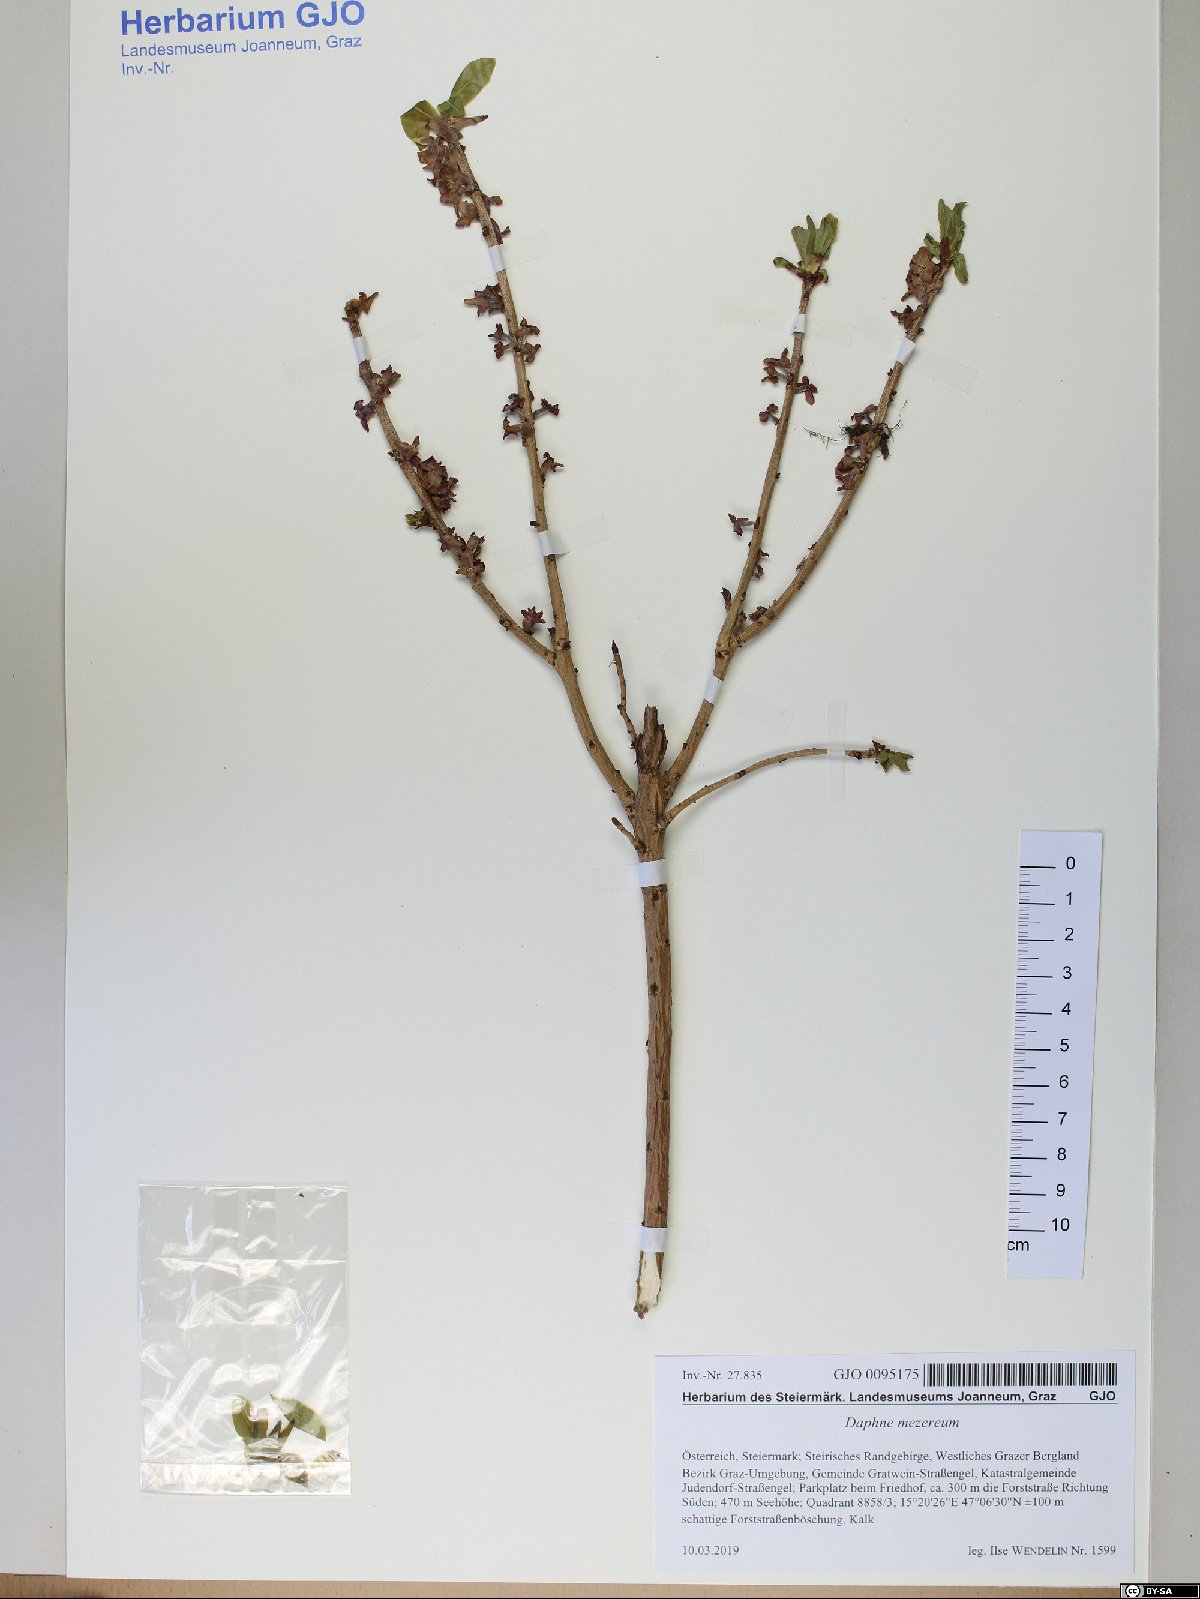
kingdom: Plantae
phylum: Tracheophyta
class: Magnoliopsida
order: Malvales
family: Thymelaeaceae
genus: Daphne
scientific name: Daphne mezereum
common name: Mezereon
